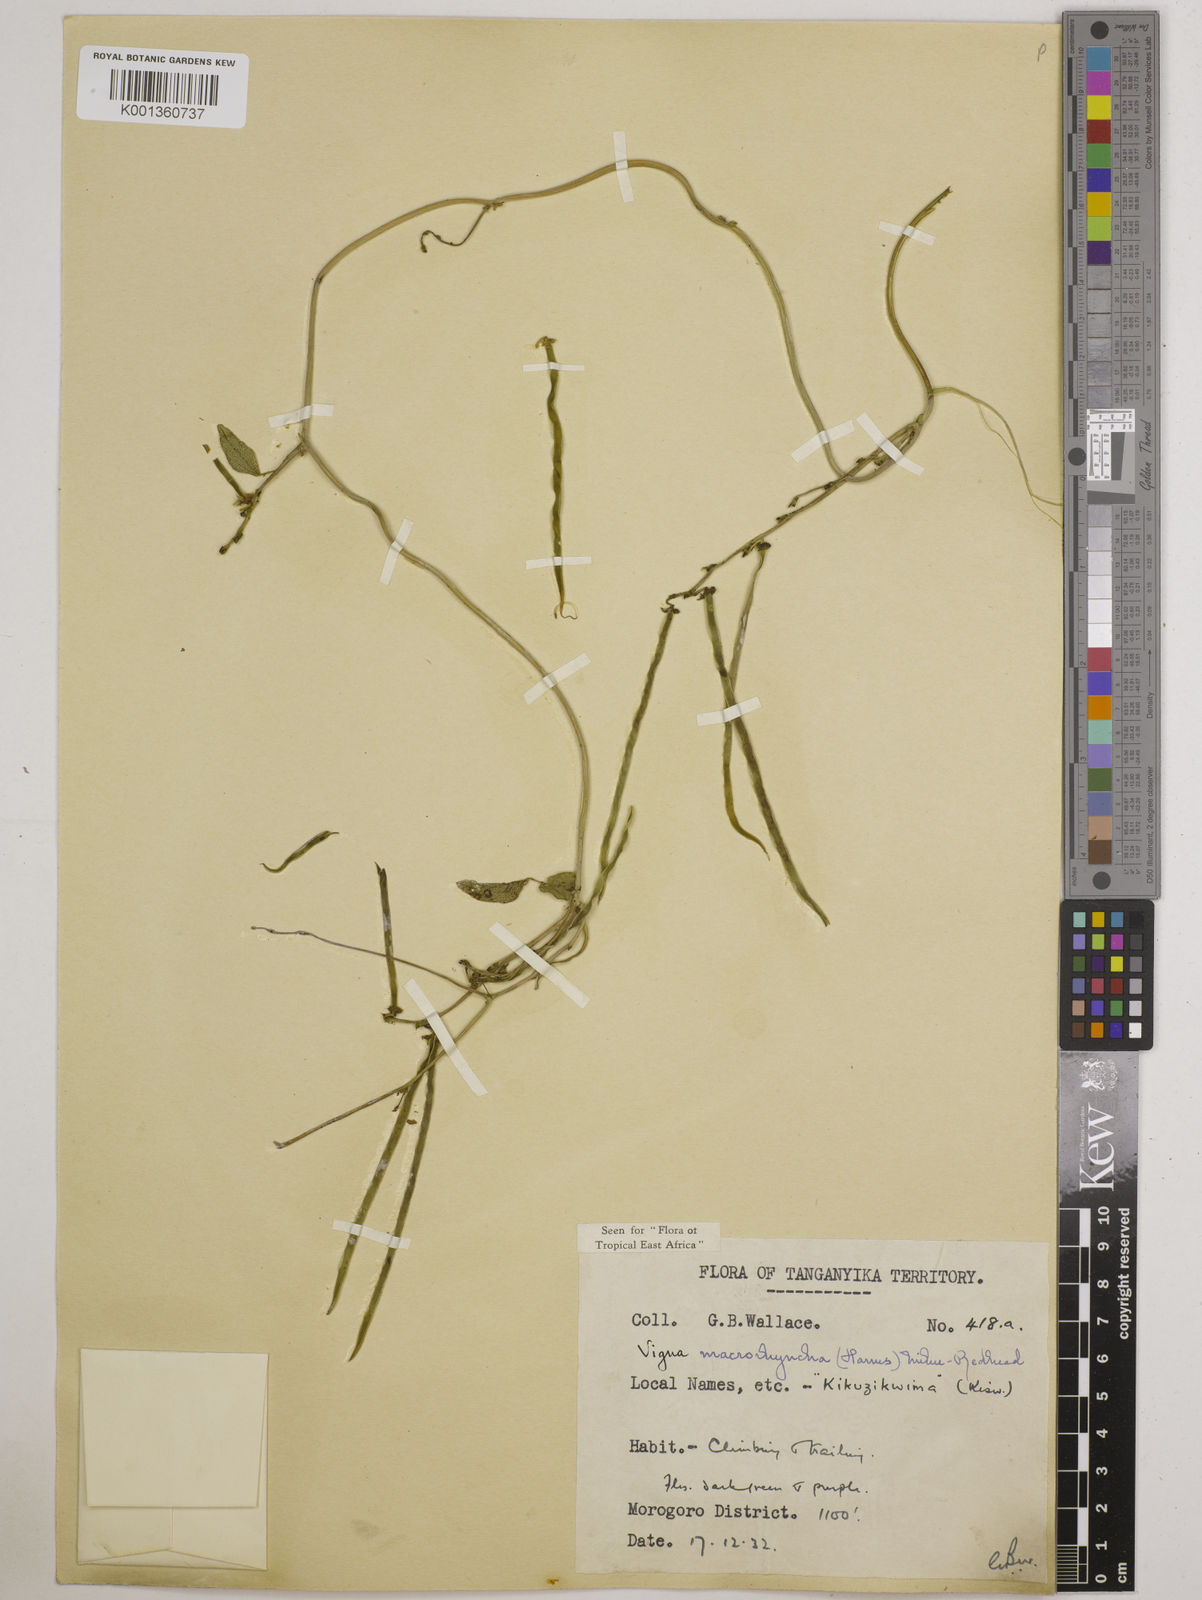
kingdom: Plantae
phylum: Tracheophyta
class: Magnoliopsida
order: Fabales
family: Fabaceae
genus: Wajira
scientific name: Wajira grahamiana
